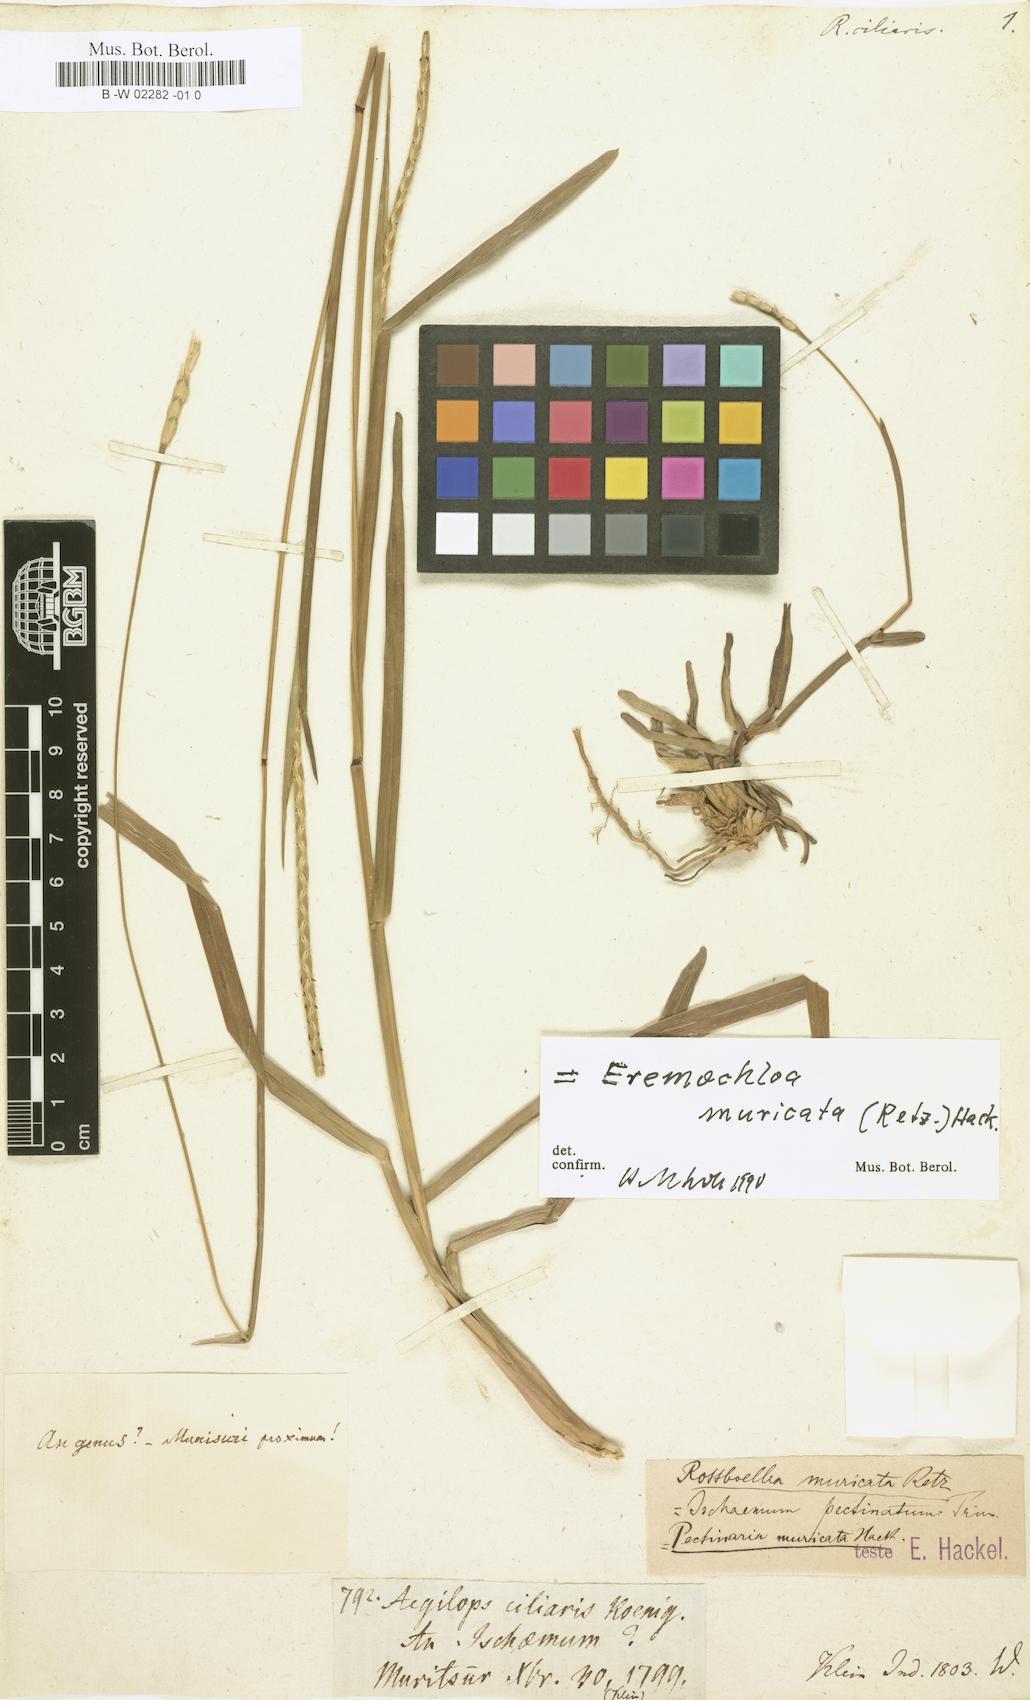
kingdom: Plantae
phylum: Tracheophyta
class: Liliopsida
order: Poales
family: Poaceae
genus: Eremochloa
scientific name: Eremochloa pectinata
